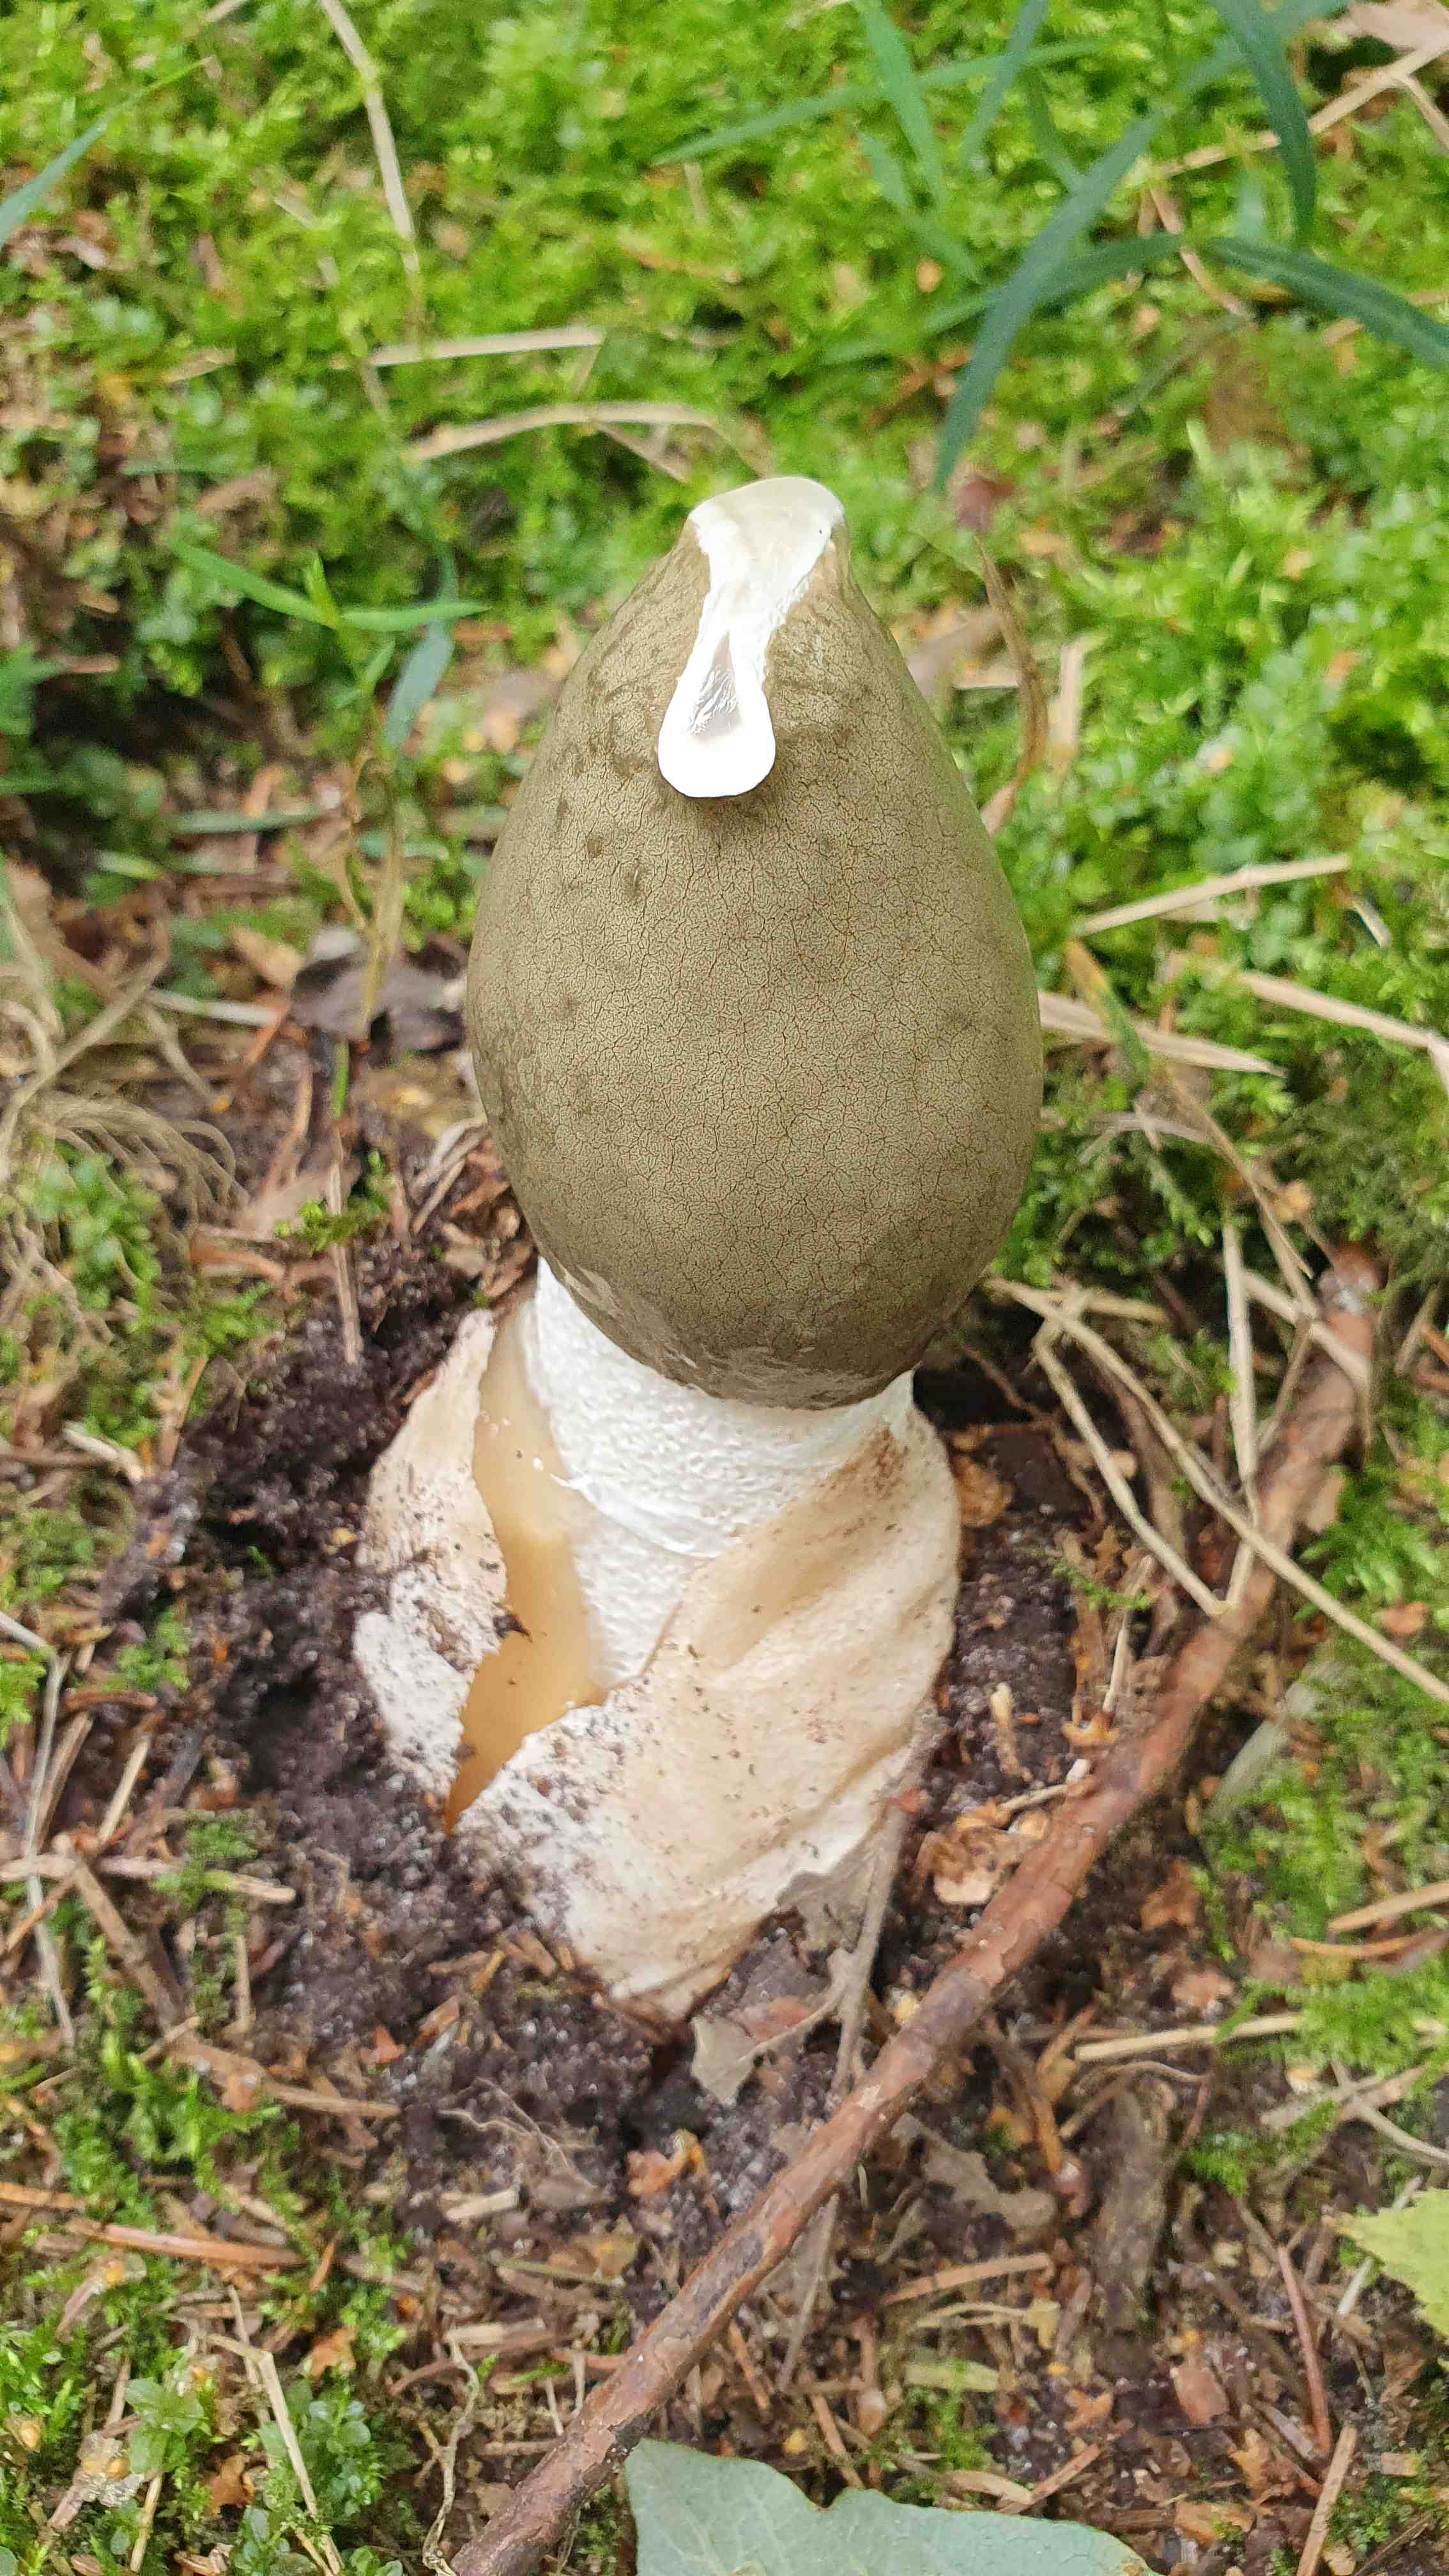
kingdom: Fungi
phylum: Basidiomycota
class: Agaricomycetes
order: Phallales
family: Phallaceae
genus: Phallus
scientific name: Phallus impudicus
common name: almindelig stinksvamp
